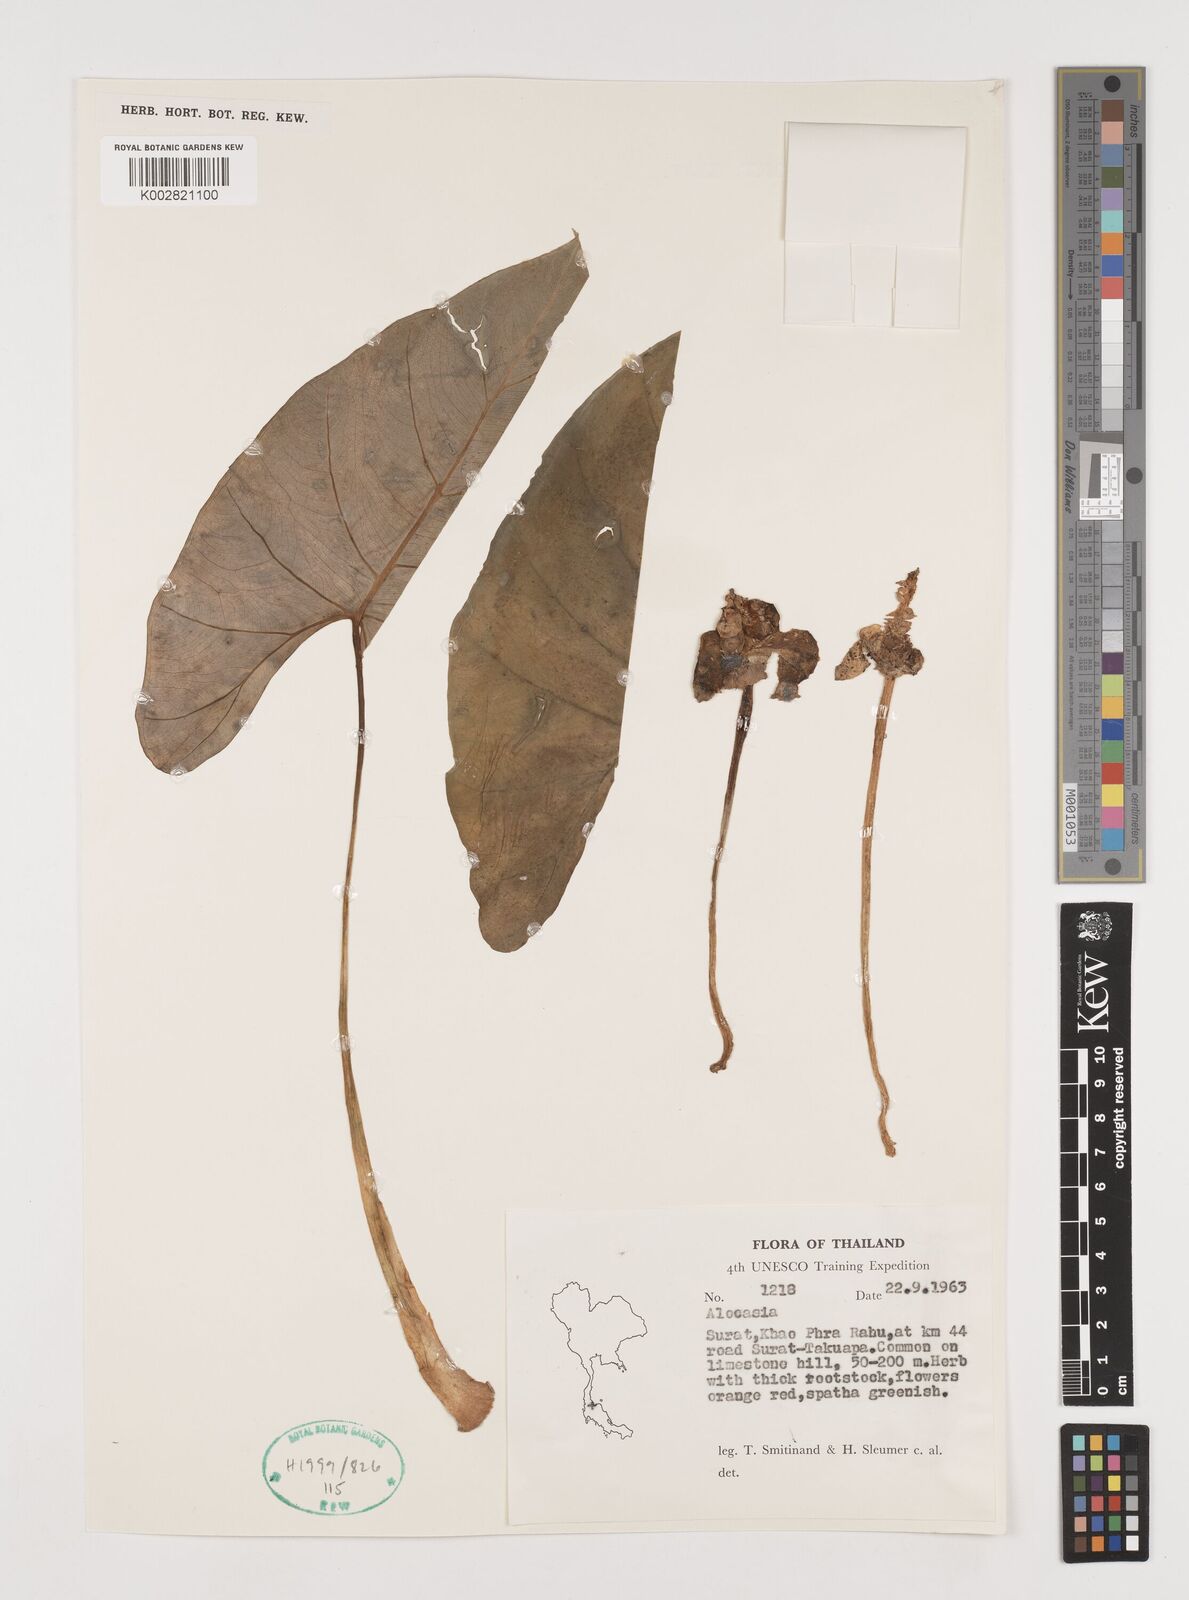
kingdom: Plantae
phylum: Tracheophyta
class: Liliopsida
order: Alismatales
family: Araceae
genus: Alocasia
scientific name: Alocasia
